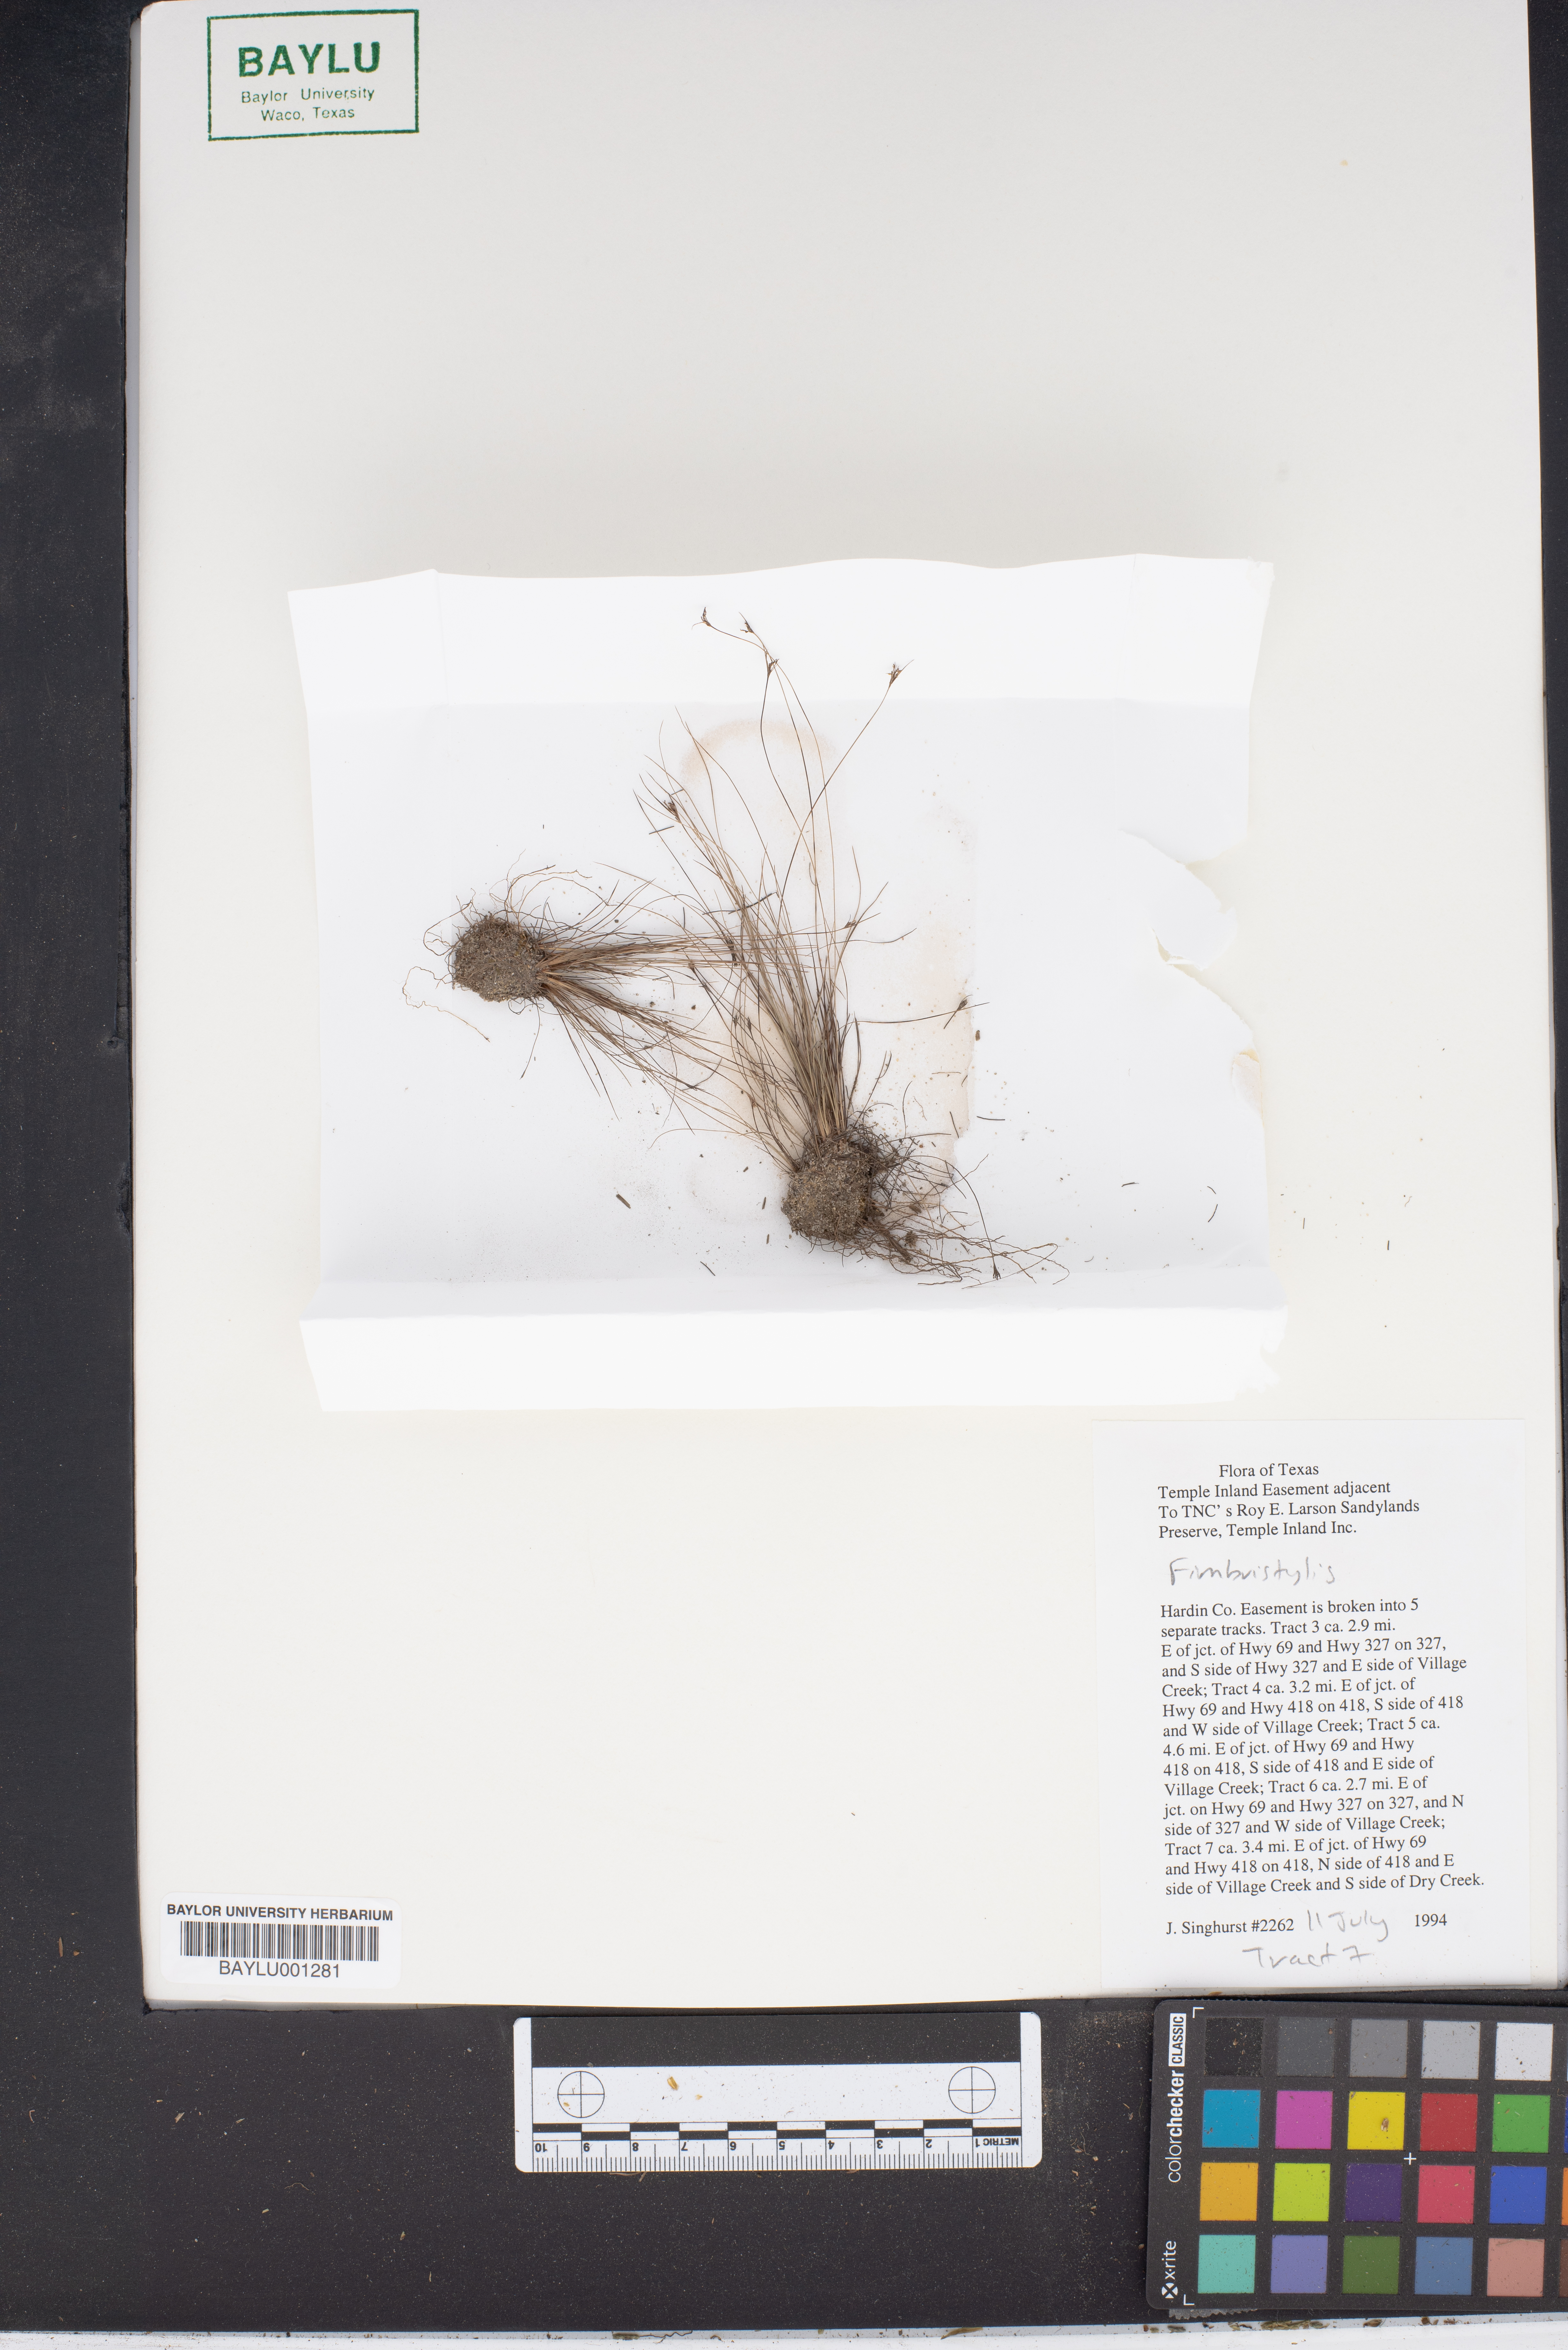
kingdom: Plantae
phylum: Tracheophyta
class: Liliopsida
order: Poales
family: Cyperaceae
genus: Fimbristylis
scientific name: Fimbristylis
